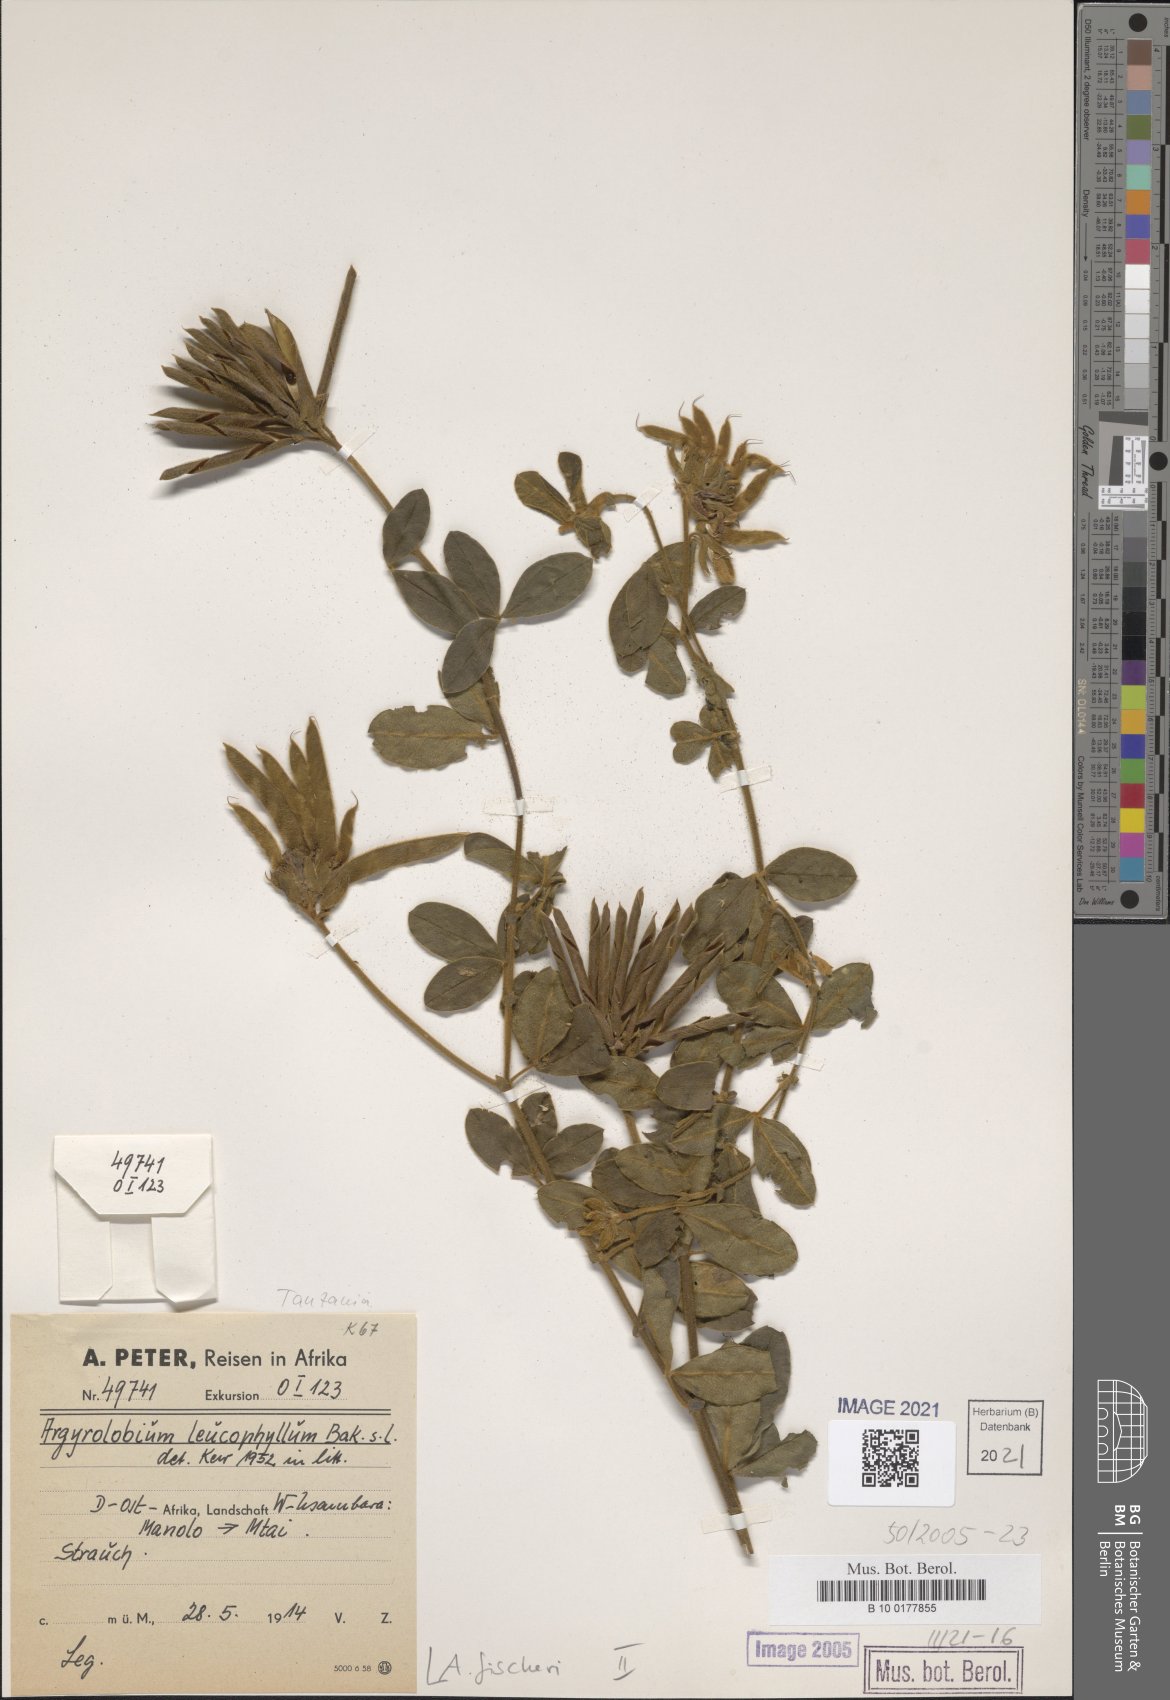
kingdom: Plantae
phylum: Tracheophyta
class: Magnoliopsida
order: Fabales
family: Fabaceae
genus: Argyrolobium
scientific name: Argyrolobium fischeri
